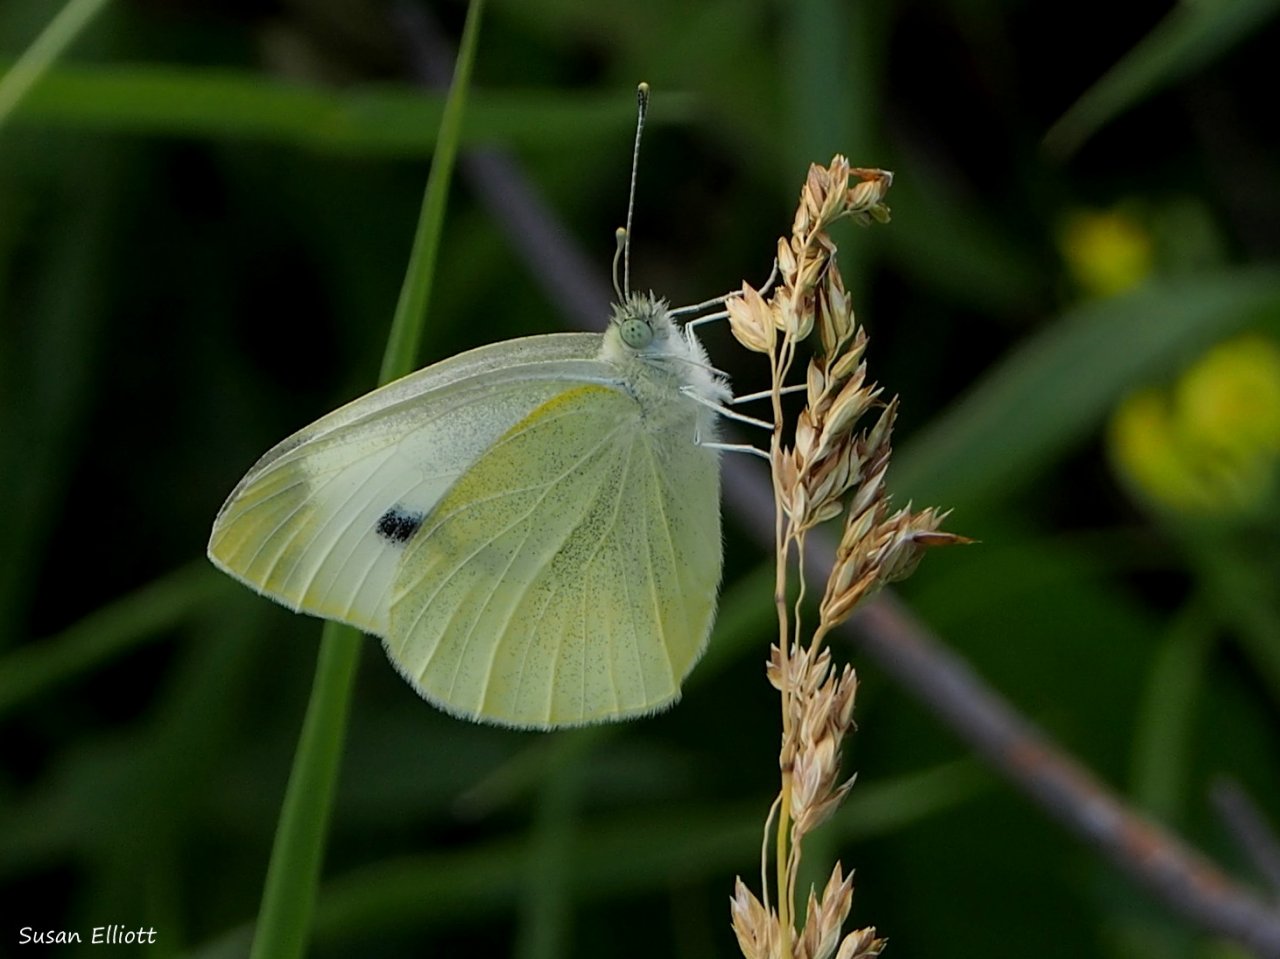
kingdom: Animalia
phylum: Arthropoda
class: Insecta
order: Lepidoptera
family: Pieridae
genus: Pieris
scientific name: Pieris rapae
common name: Cabbage White
